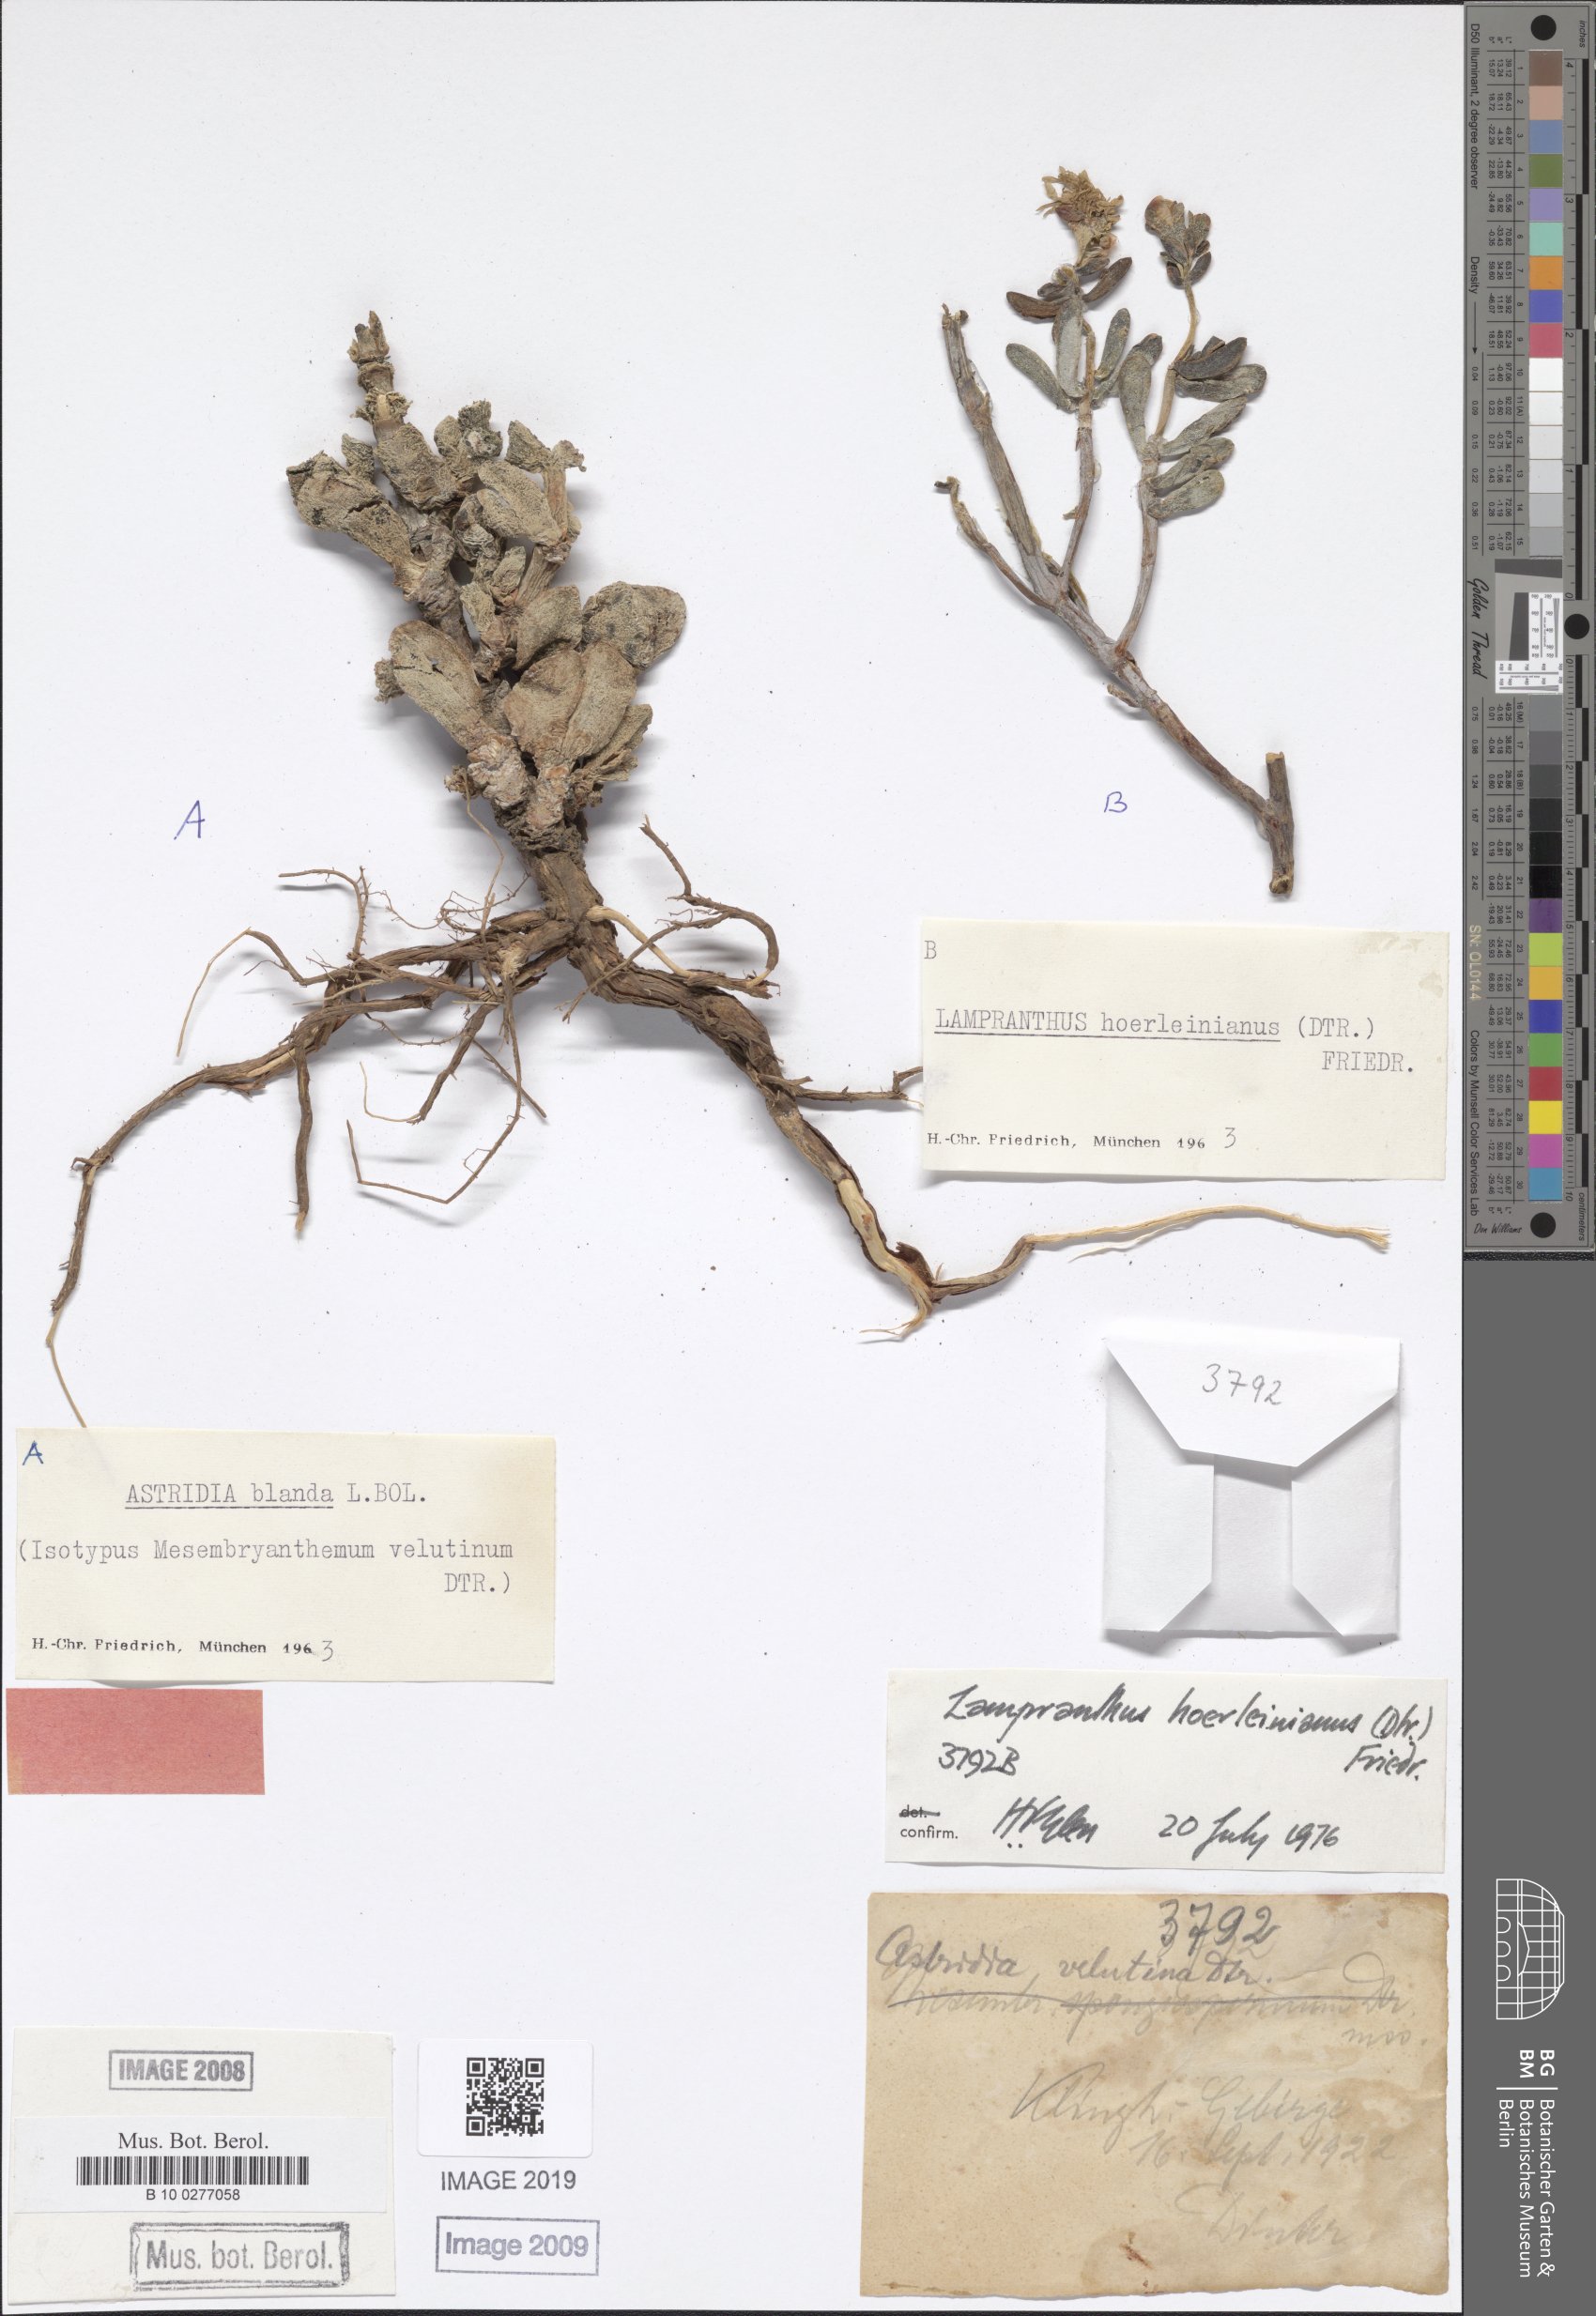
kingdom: Plantae
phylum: Tracheophyta
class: Magnoliopsida
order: Caryophyllales
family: Aizoaceae
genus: Lampranthus
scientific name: Lampranthus hoerleinianus
